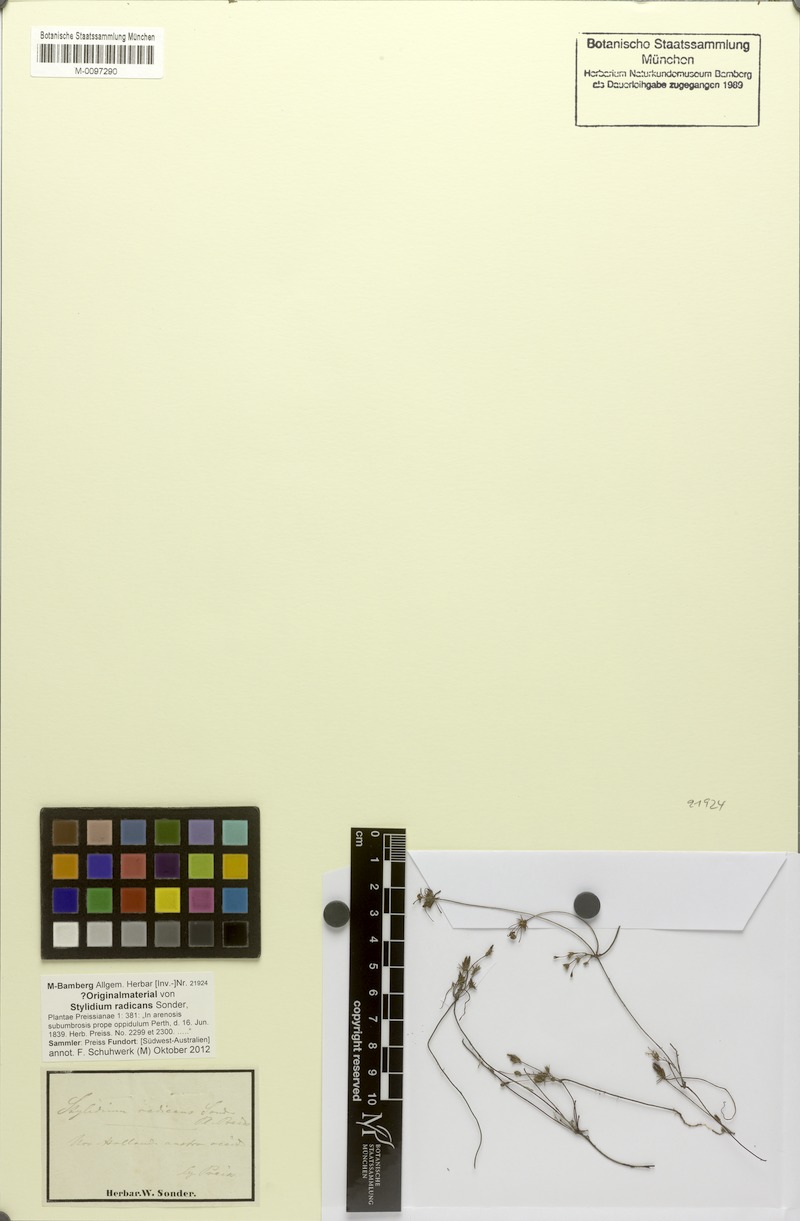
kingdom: Plantae
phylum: Tracheophyta
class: Magnoliopsida
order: Asterales
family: Stylidiaceae
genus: Stylidium
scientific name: Stylidium repens
